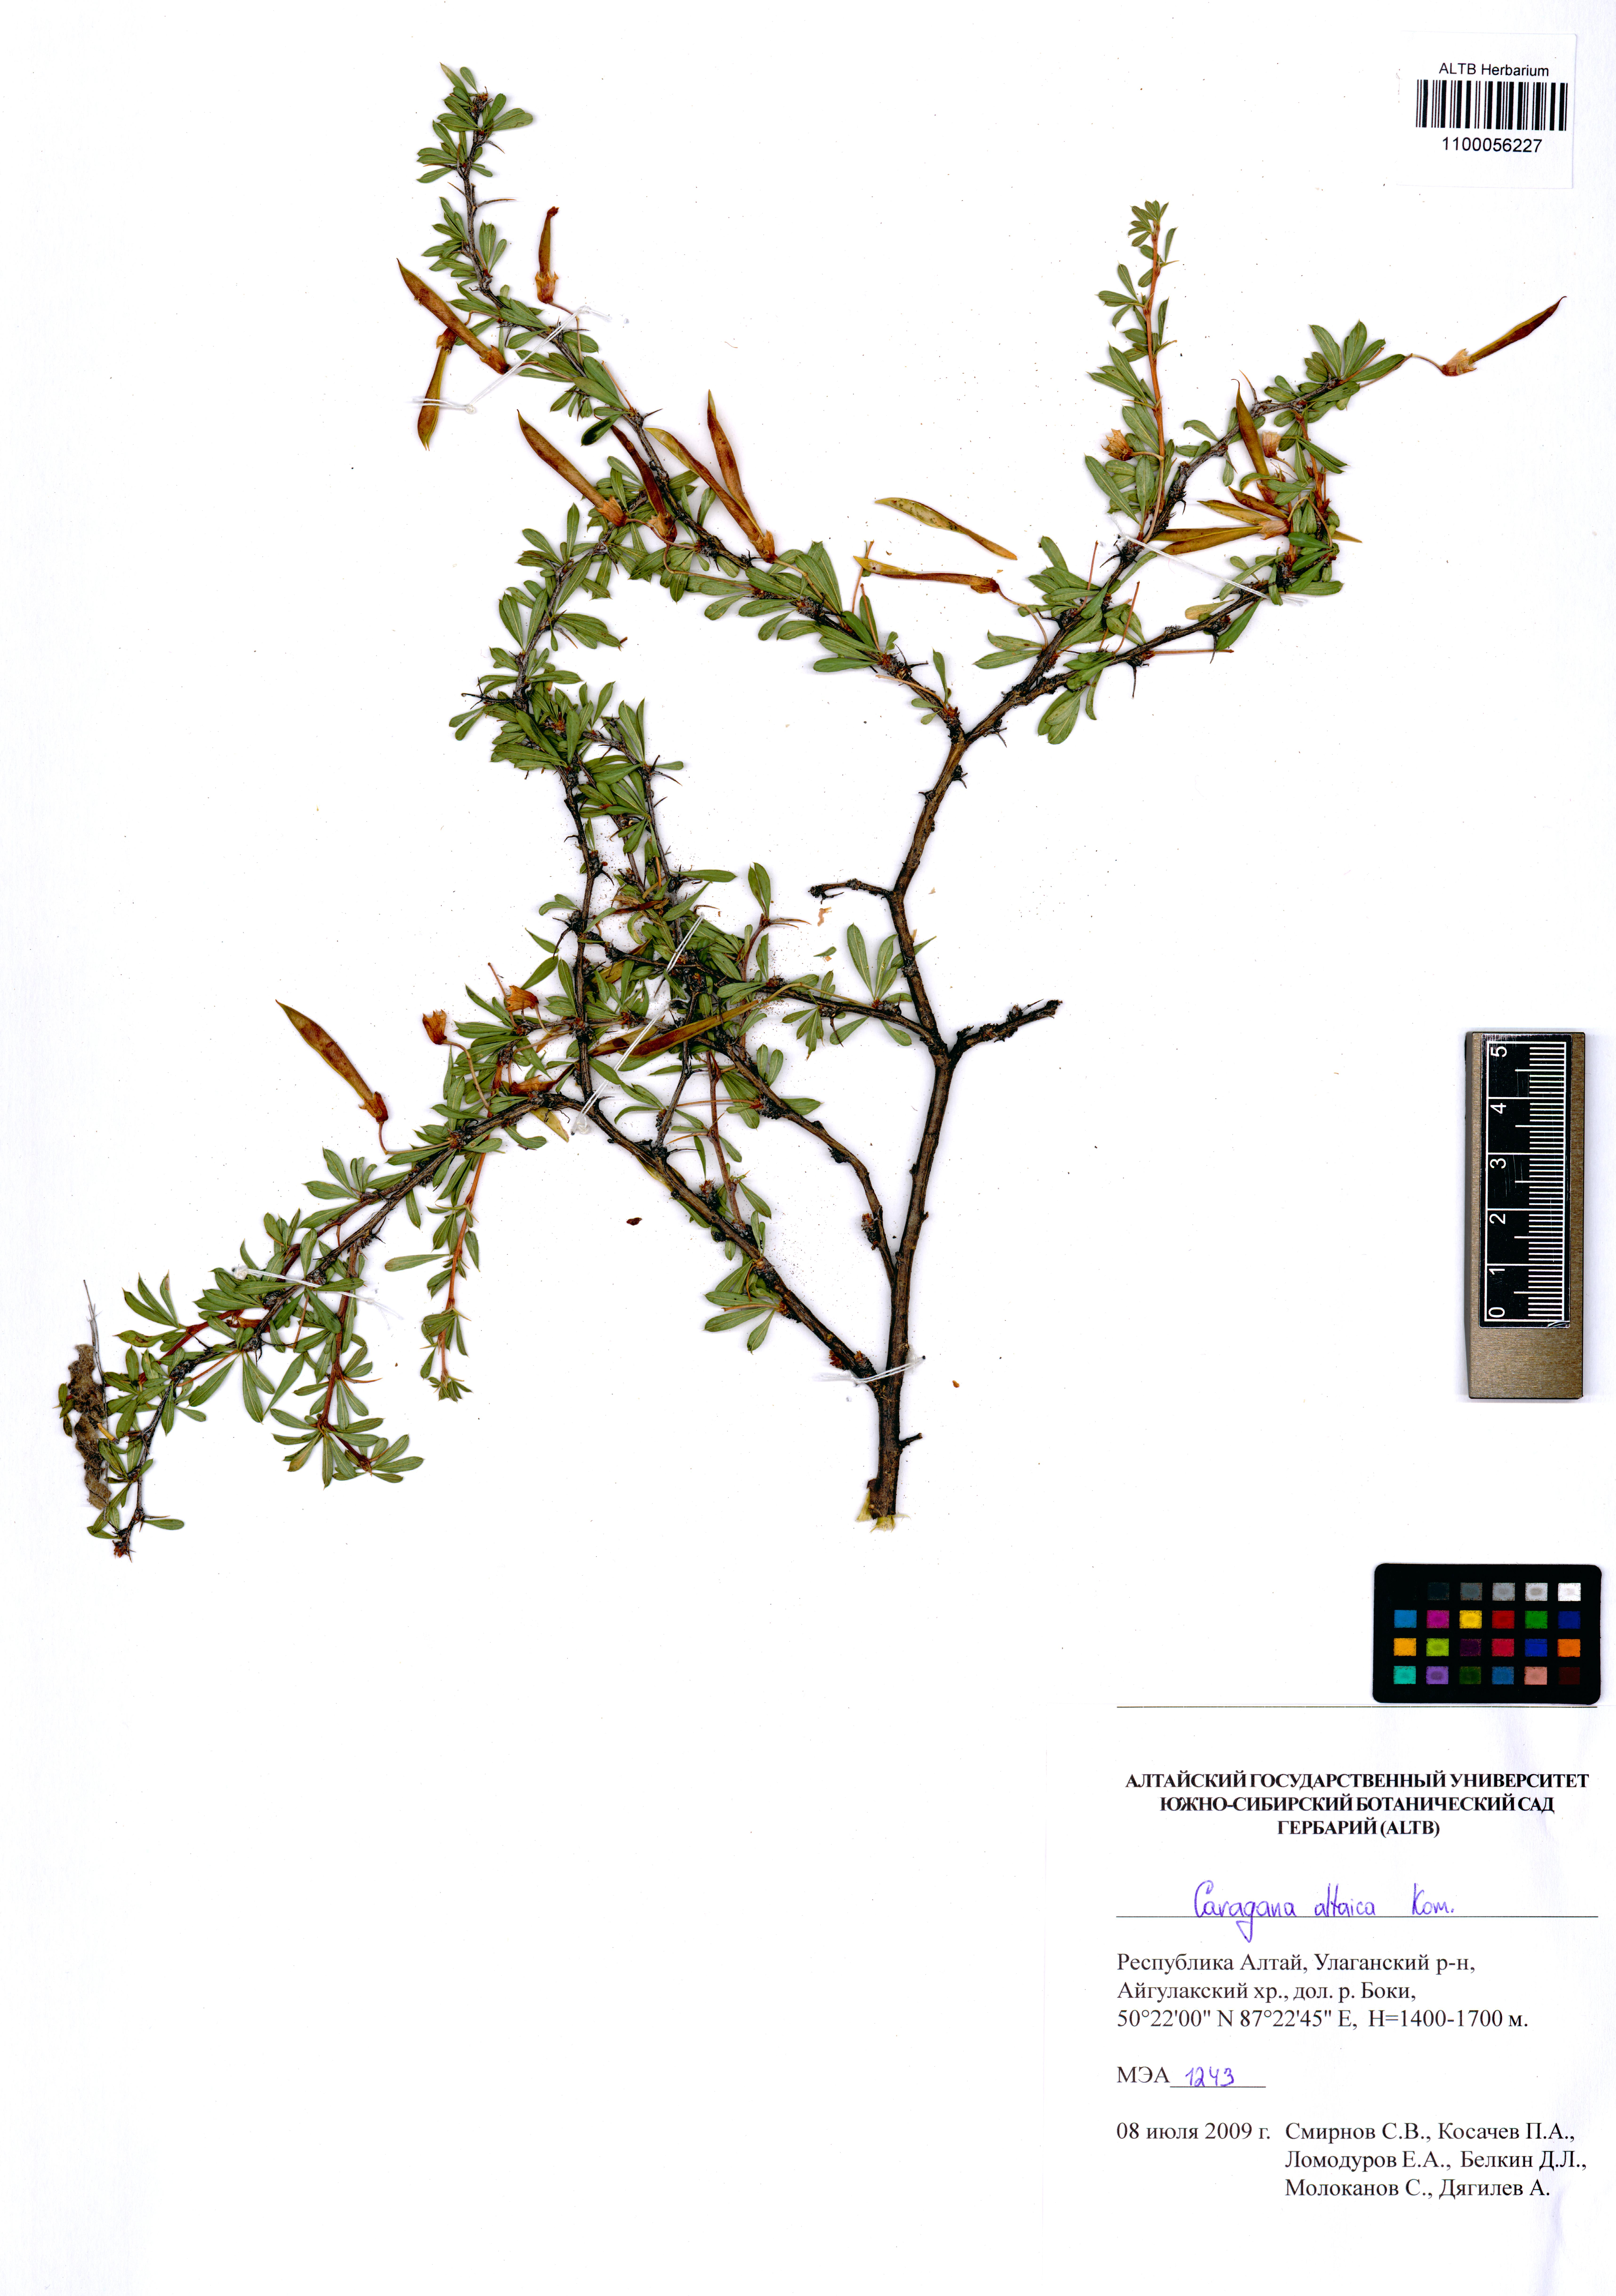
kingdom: Plantae
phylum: Tracheophyta
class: Magnoliopsida
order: Fabales
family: Fabaceae
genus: Caragana
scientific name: Caragana pygmaea
